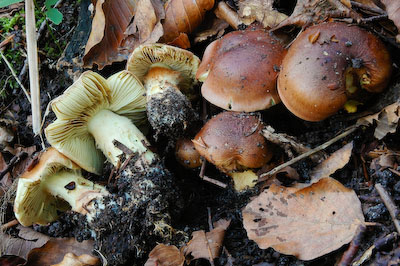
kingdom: Fungi
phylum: Basidiomycota
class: Agaricomycetes
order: Agaricales
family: Cortinariaceae
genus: Cortinarius
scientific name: Cortinarius nanceiensis
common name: banan-slørhat
